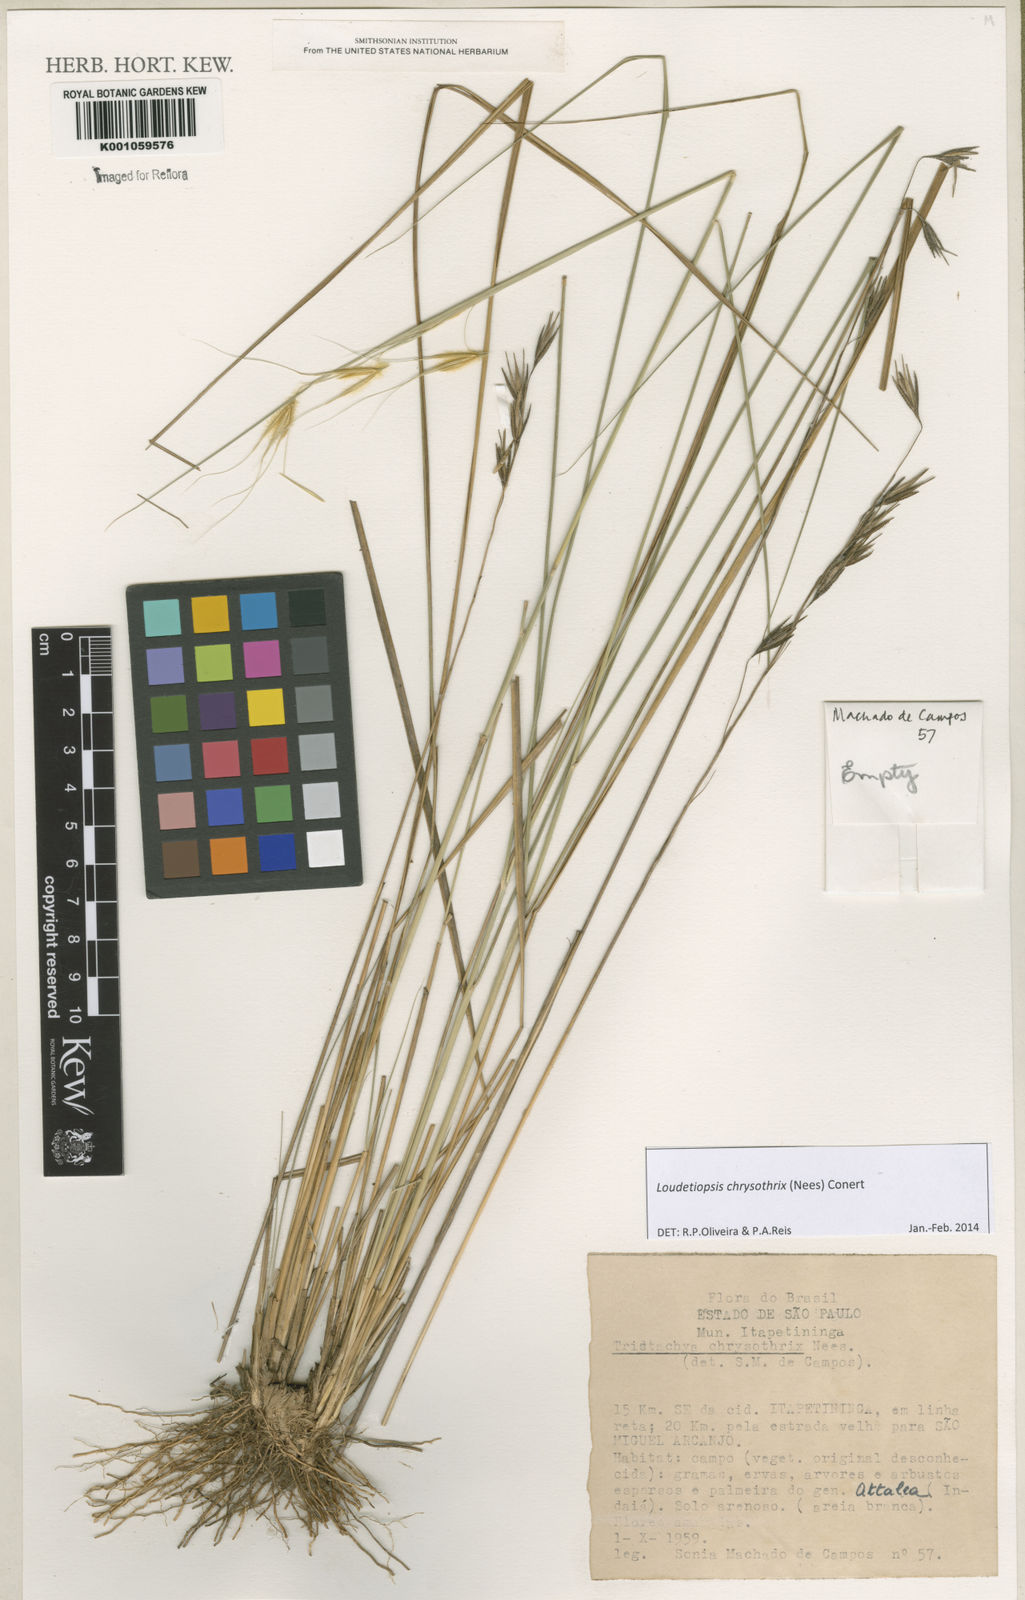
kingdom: Plantae
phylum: Tracheophyta
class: Liliopsida
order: Poales
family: Poaceae
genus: Loudetiopsis
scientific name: Loudetiopsis chrysothrix
